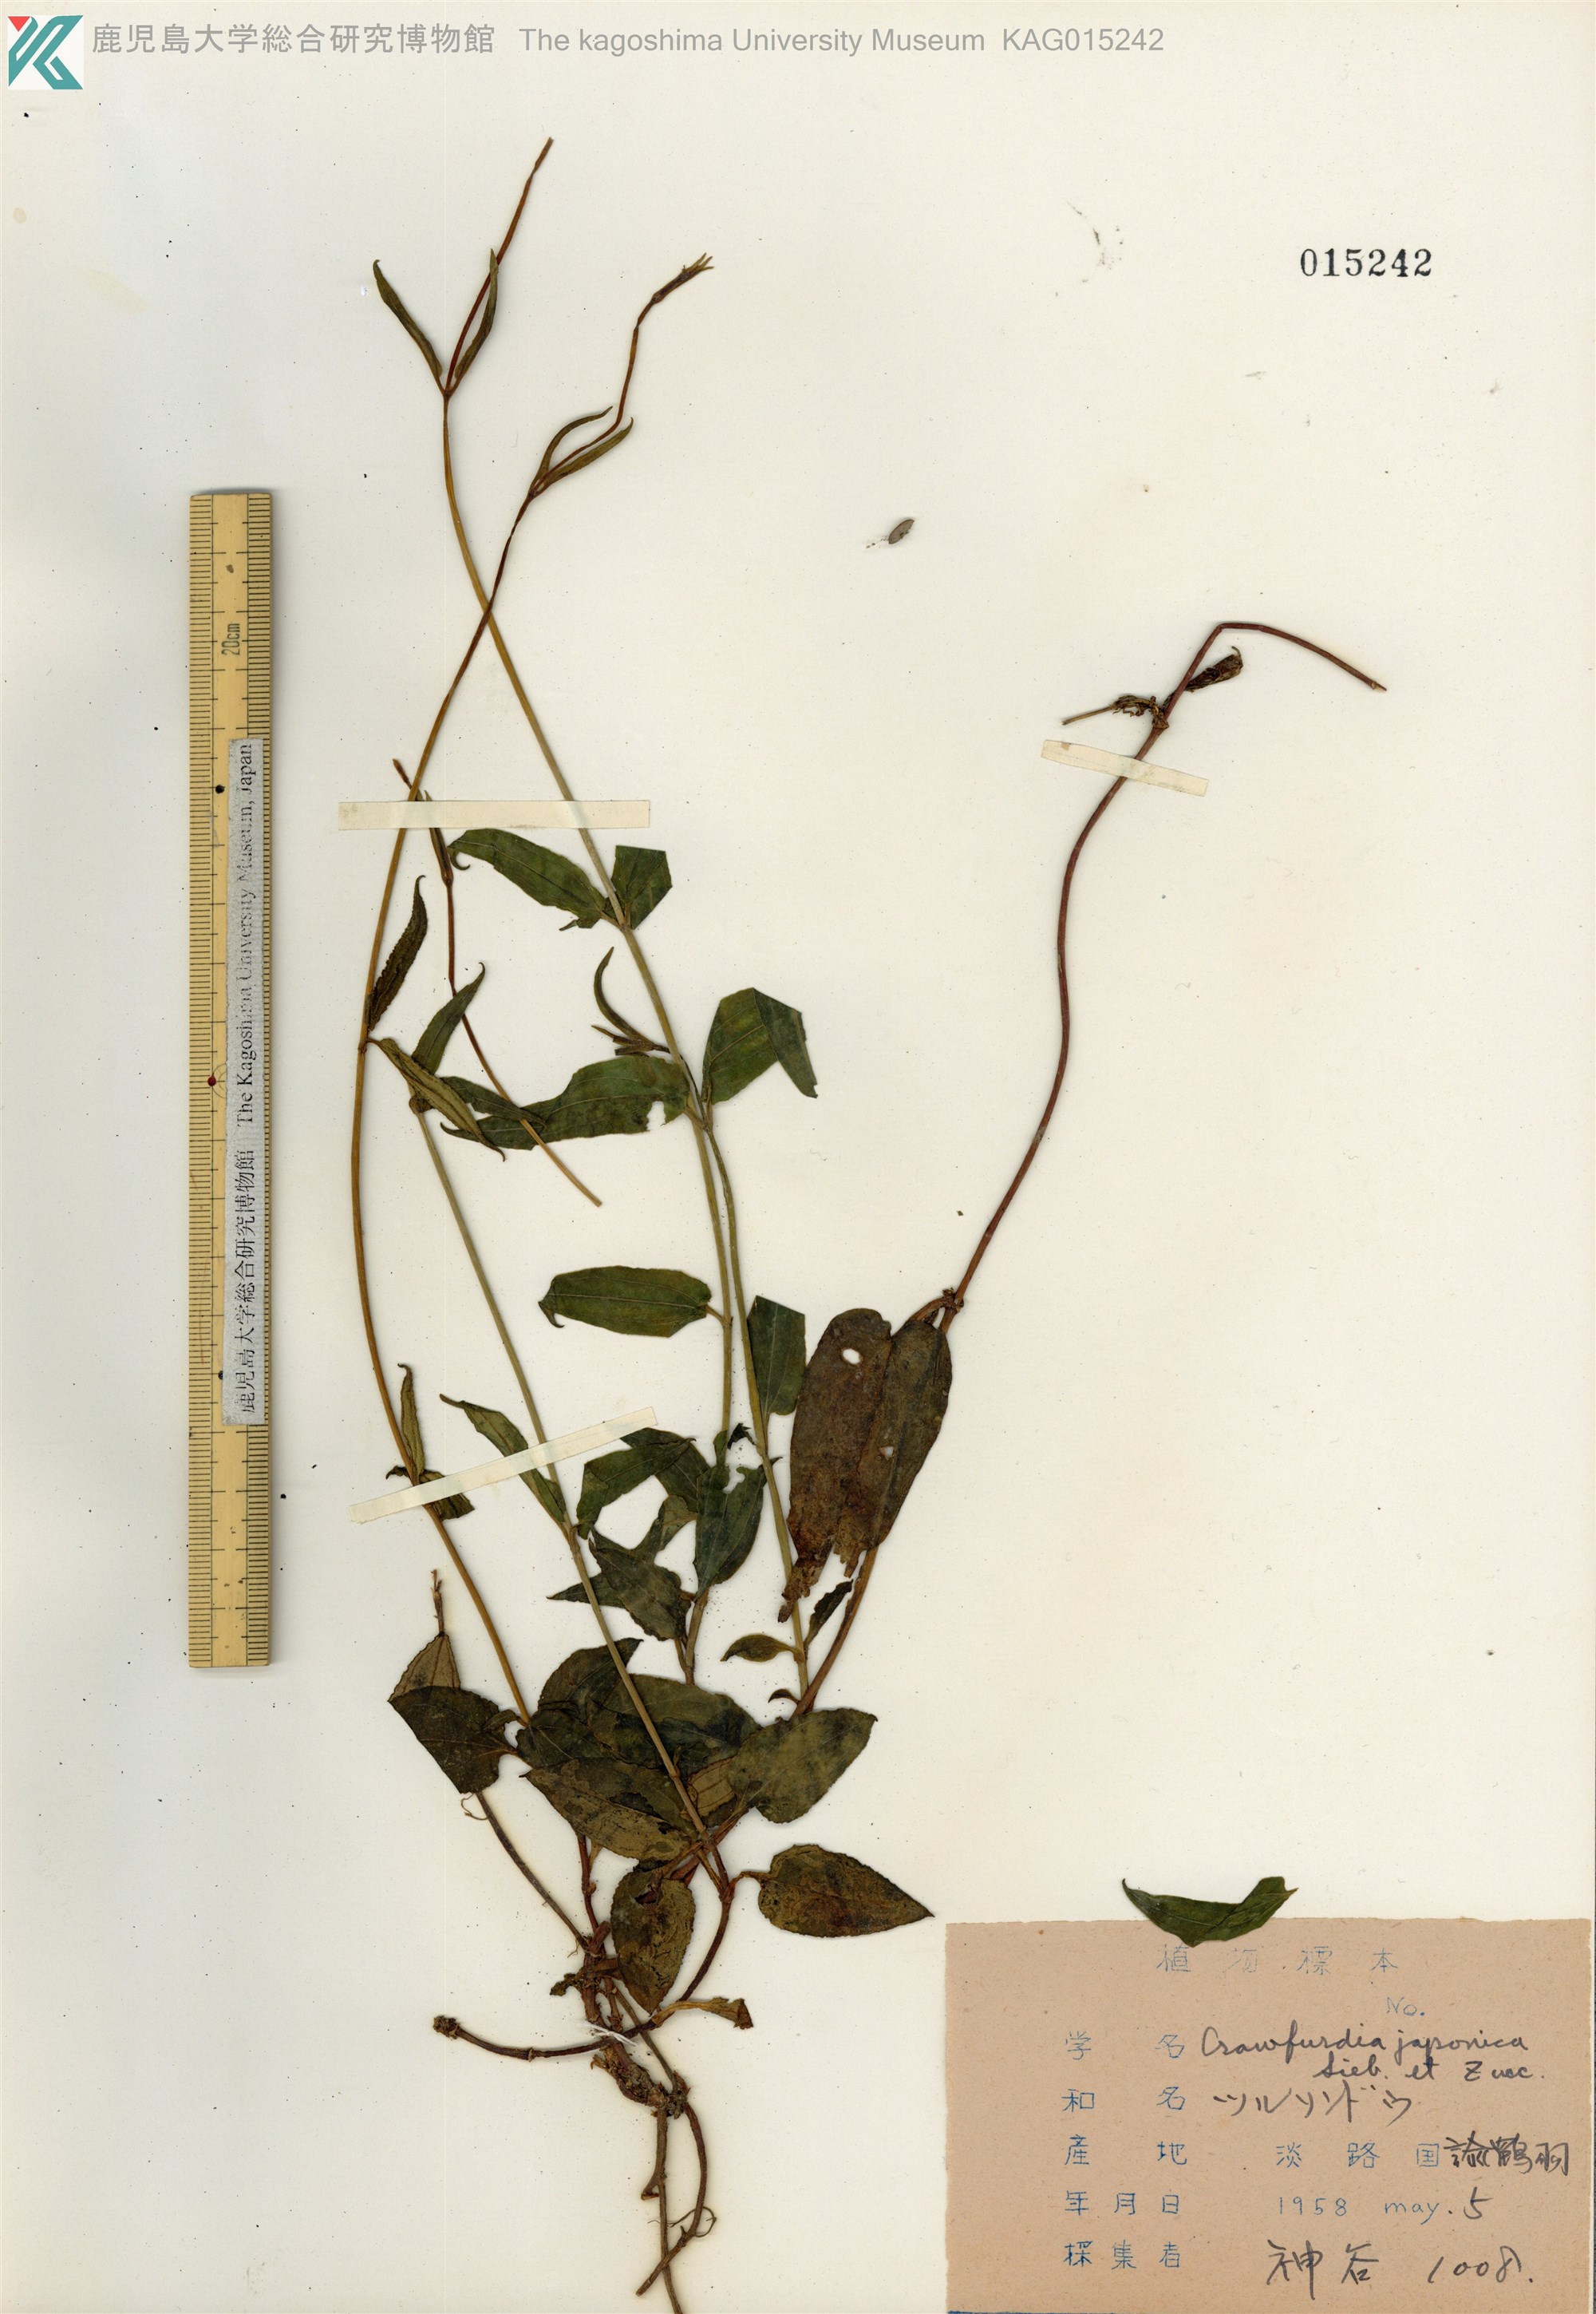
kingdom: Plantae
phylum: Tracheophyta
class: Magnoliopsida
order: Gentianales
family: Gentianaceae
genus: Tripterospermum
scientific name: Tripterospermum trinervium
